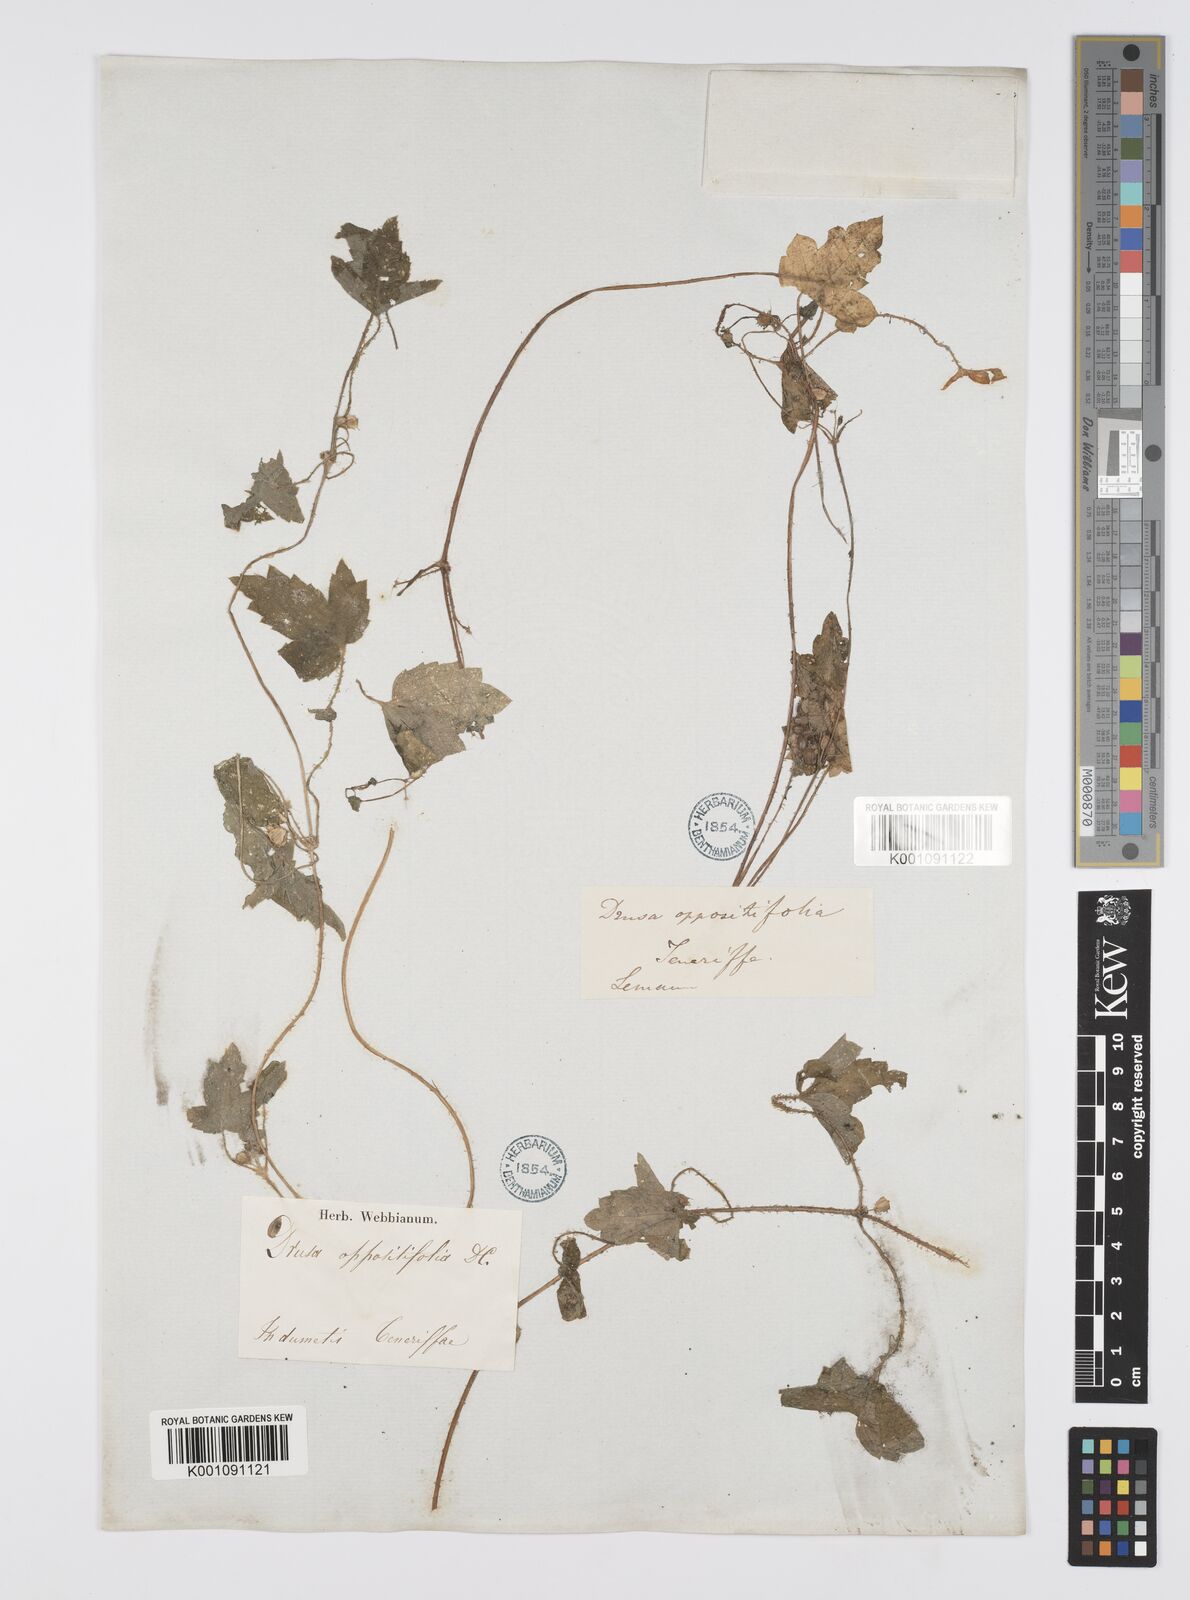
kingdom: Plantae
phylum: Tracheophyta
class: Magnoliopsida
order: Apiales
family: Apiaceae
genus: Drusa
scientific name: Drusa glandulosa
